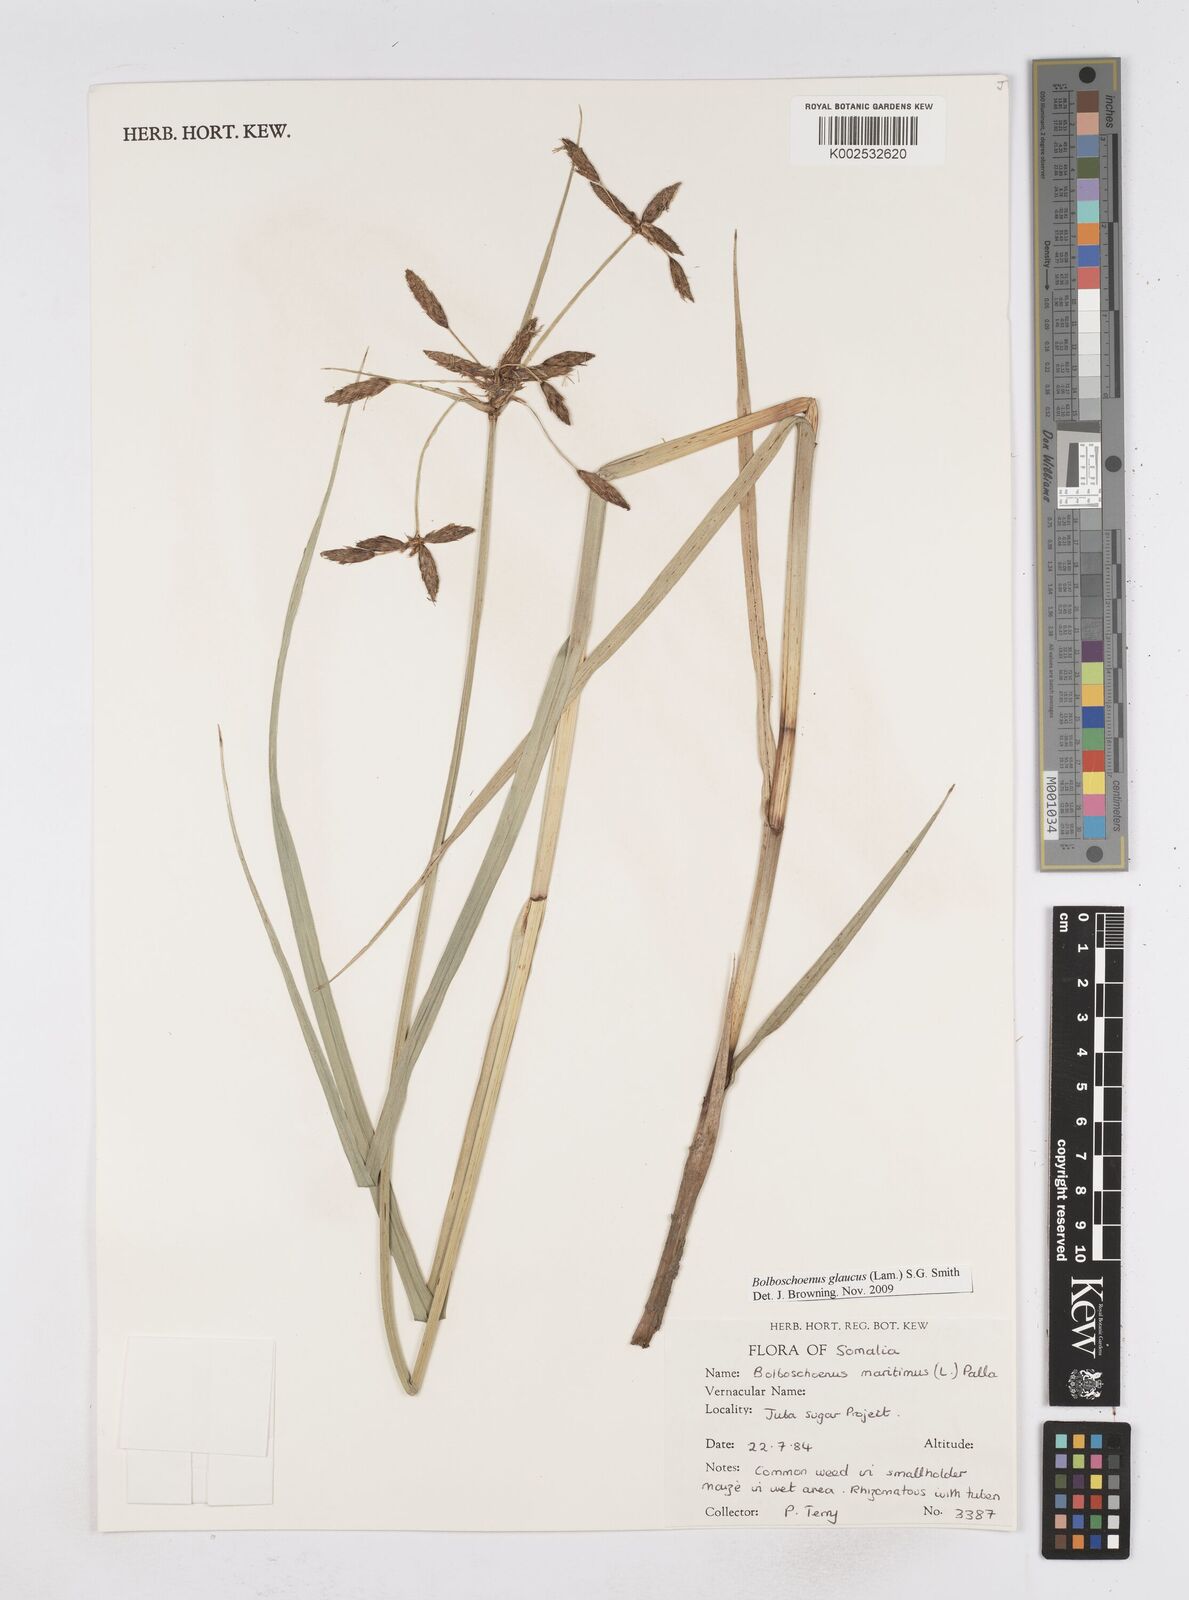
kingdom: Plantae
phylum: Tracheophyta
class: Liliopsida
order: Poales
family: Cyperaceae
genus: Bolboschoenus
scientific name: Bolboschoenus glaucus
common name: Tuberous bulrush
